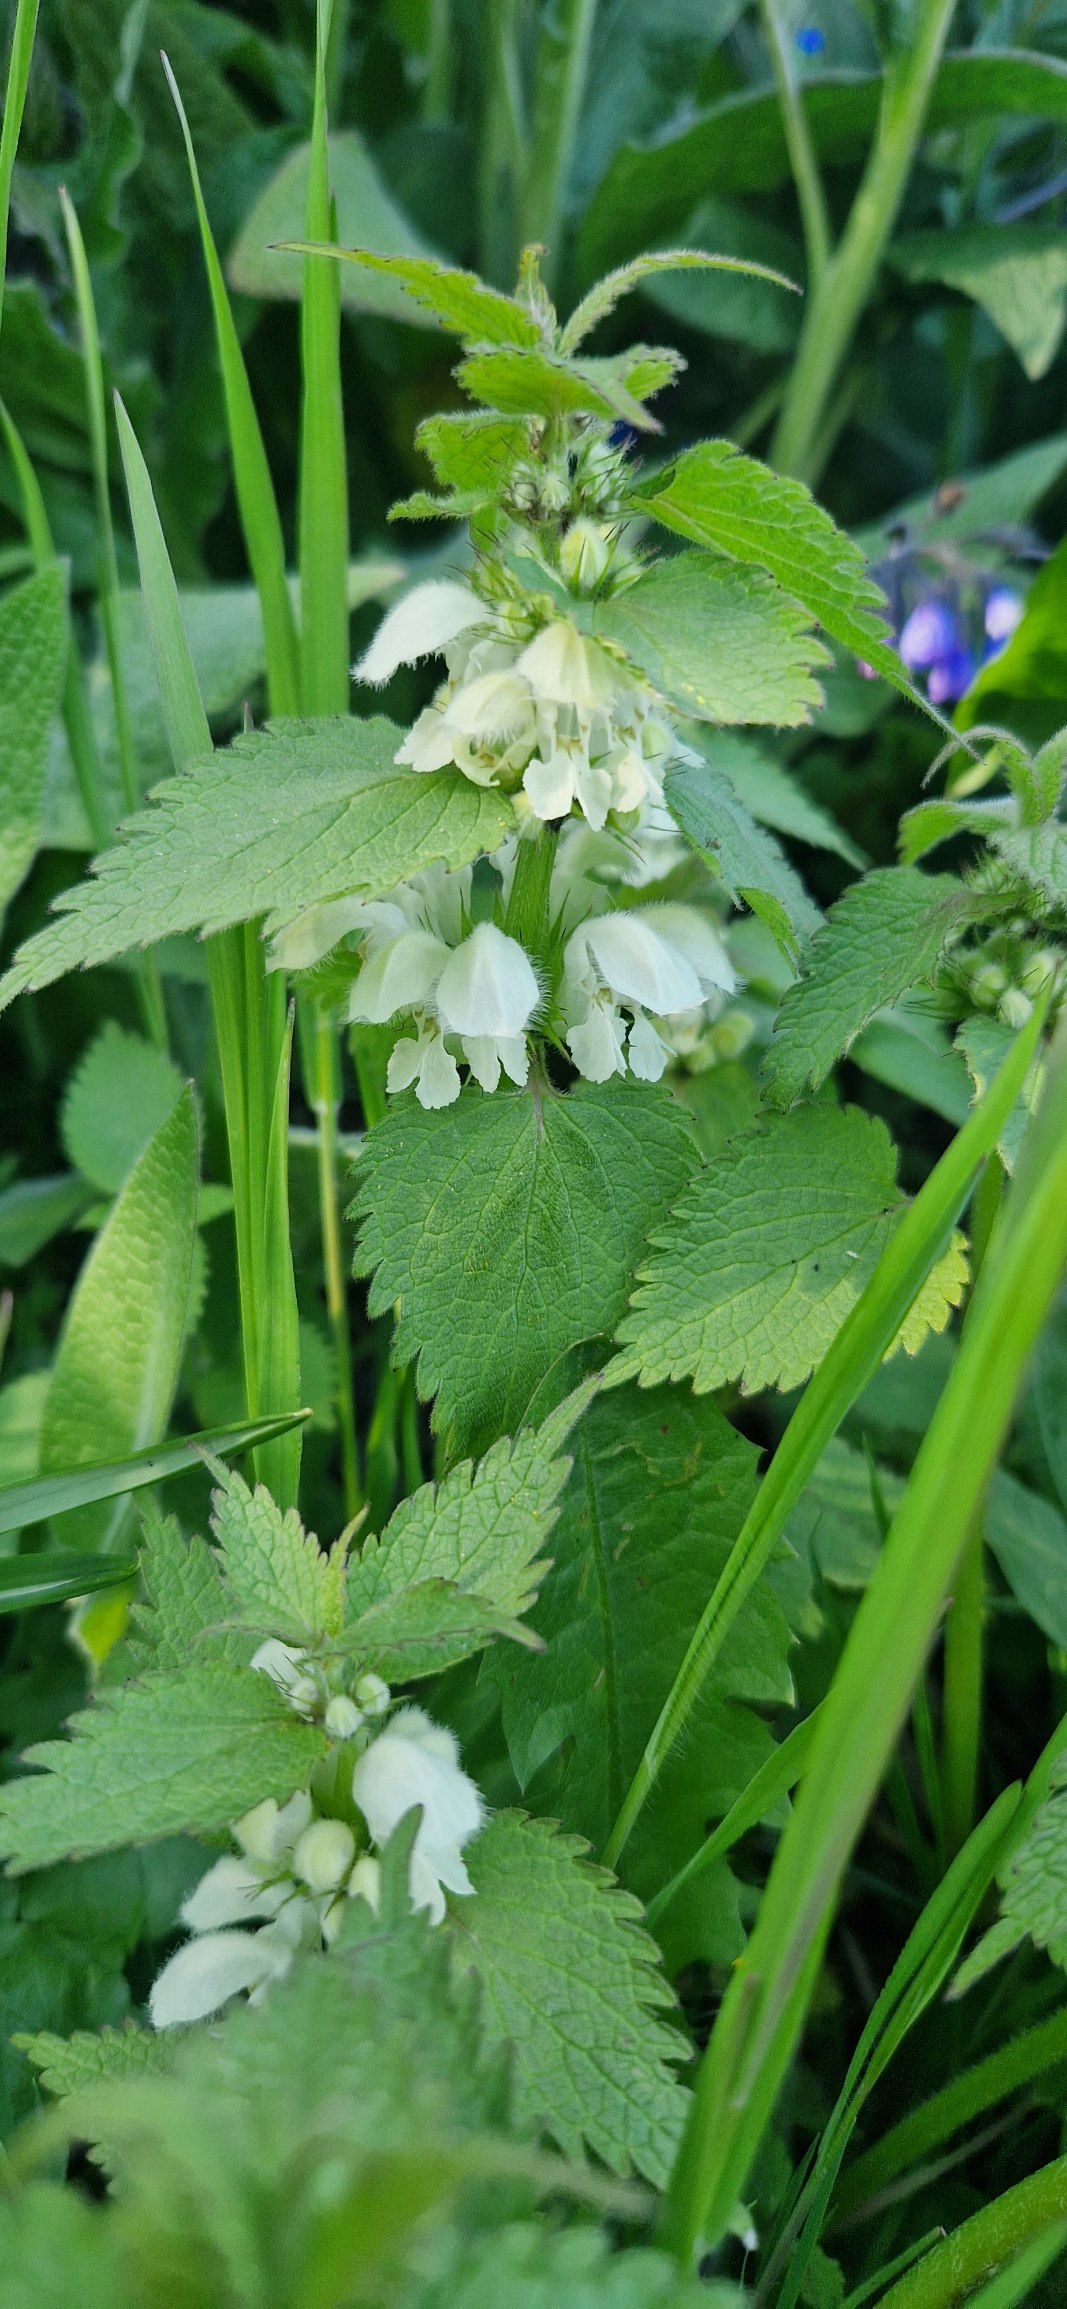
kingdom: Plantae
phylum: Tracheophyta
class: Magnoliopsida
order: Lamiales
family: Lamiaceae
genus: Lamium
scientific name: Lamium album
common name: Døvnælde
